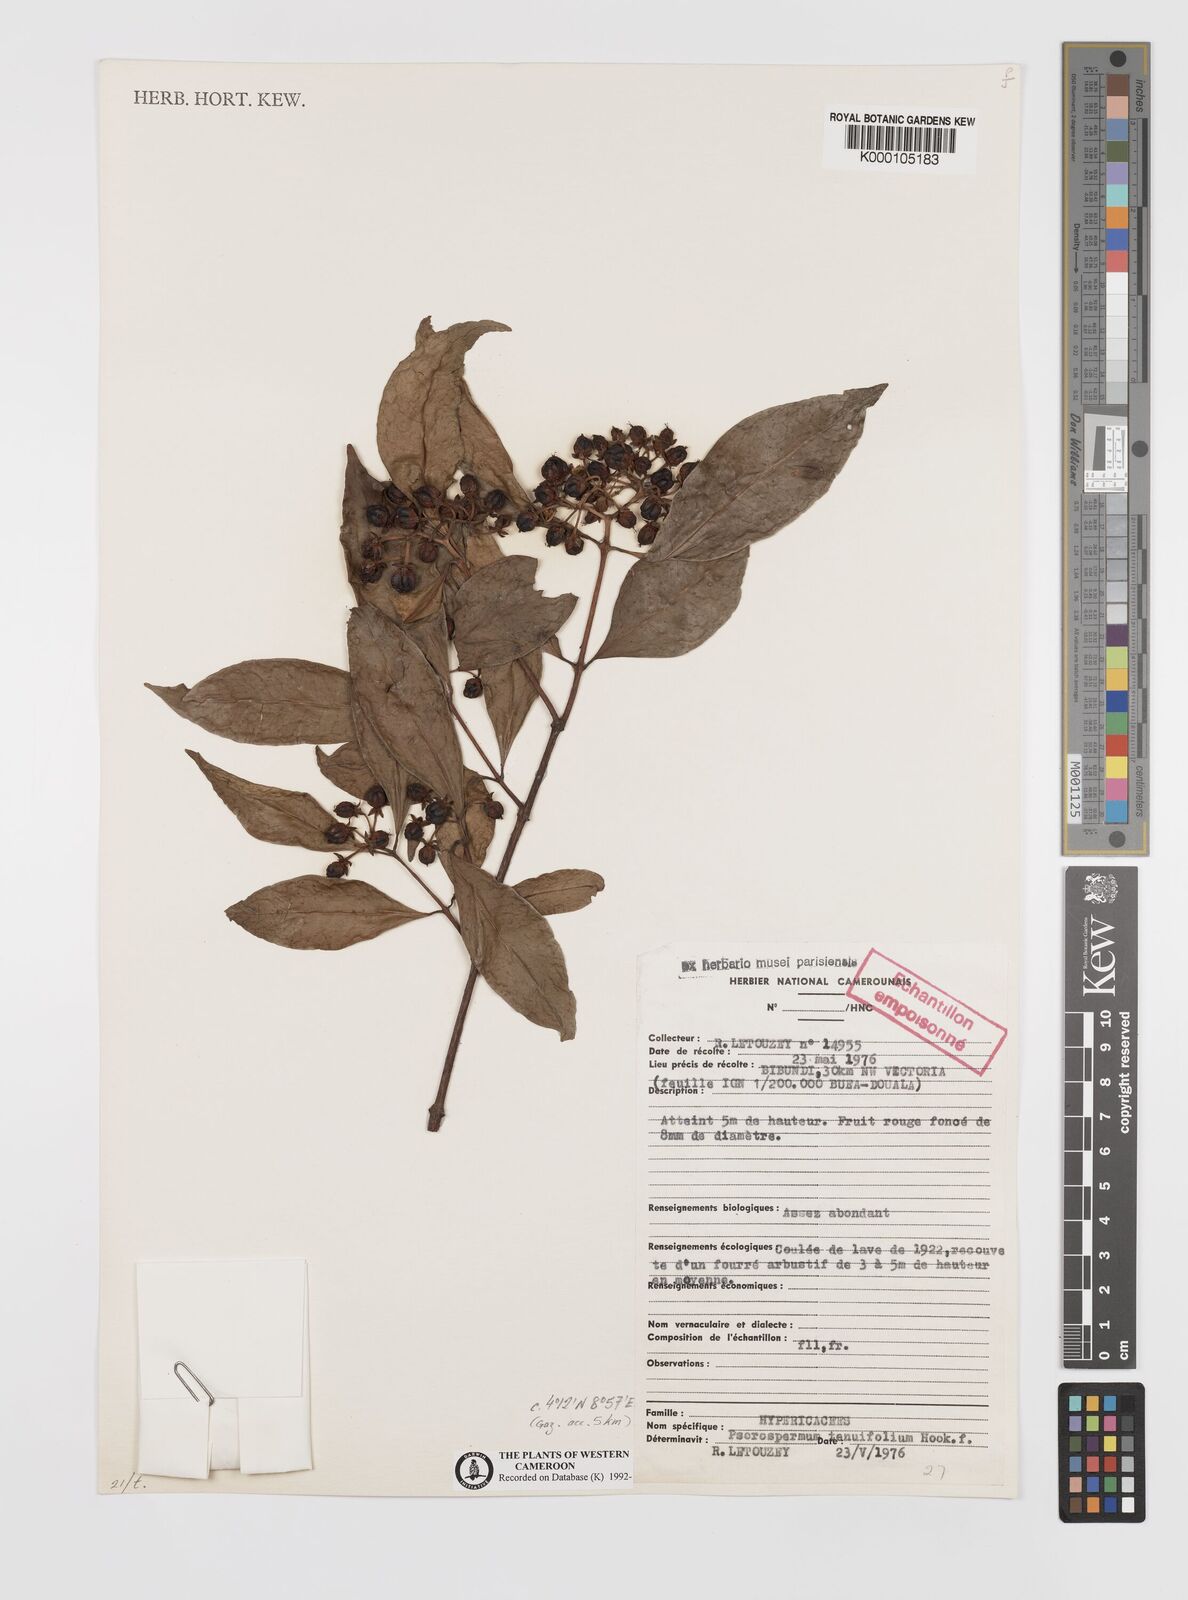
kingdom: Plantae
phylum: Tracheophyta
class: Magnoliopsida
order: Malpighiales
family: Hypericaceae
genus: Psorospermum
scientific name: Psorospermum tenuifolium
